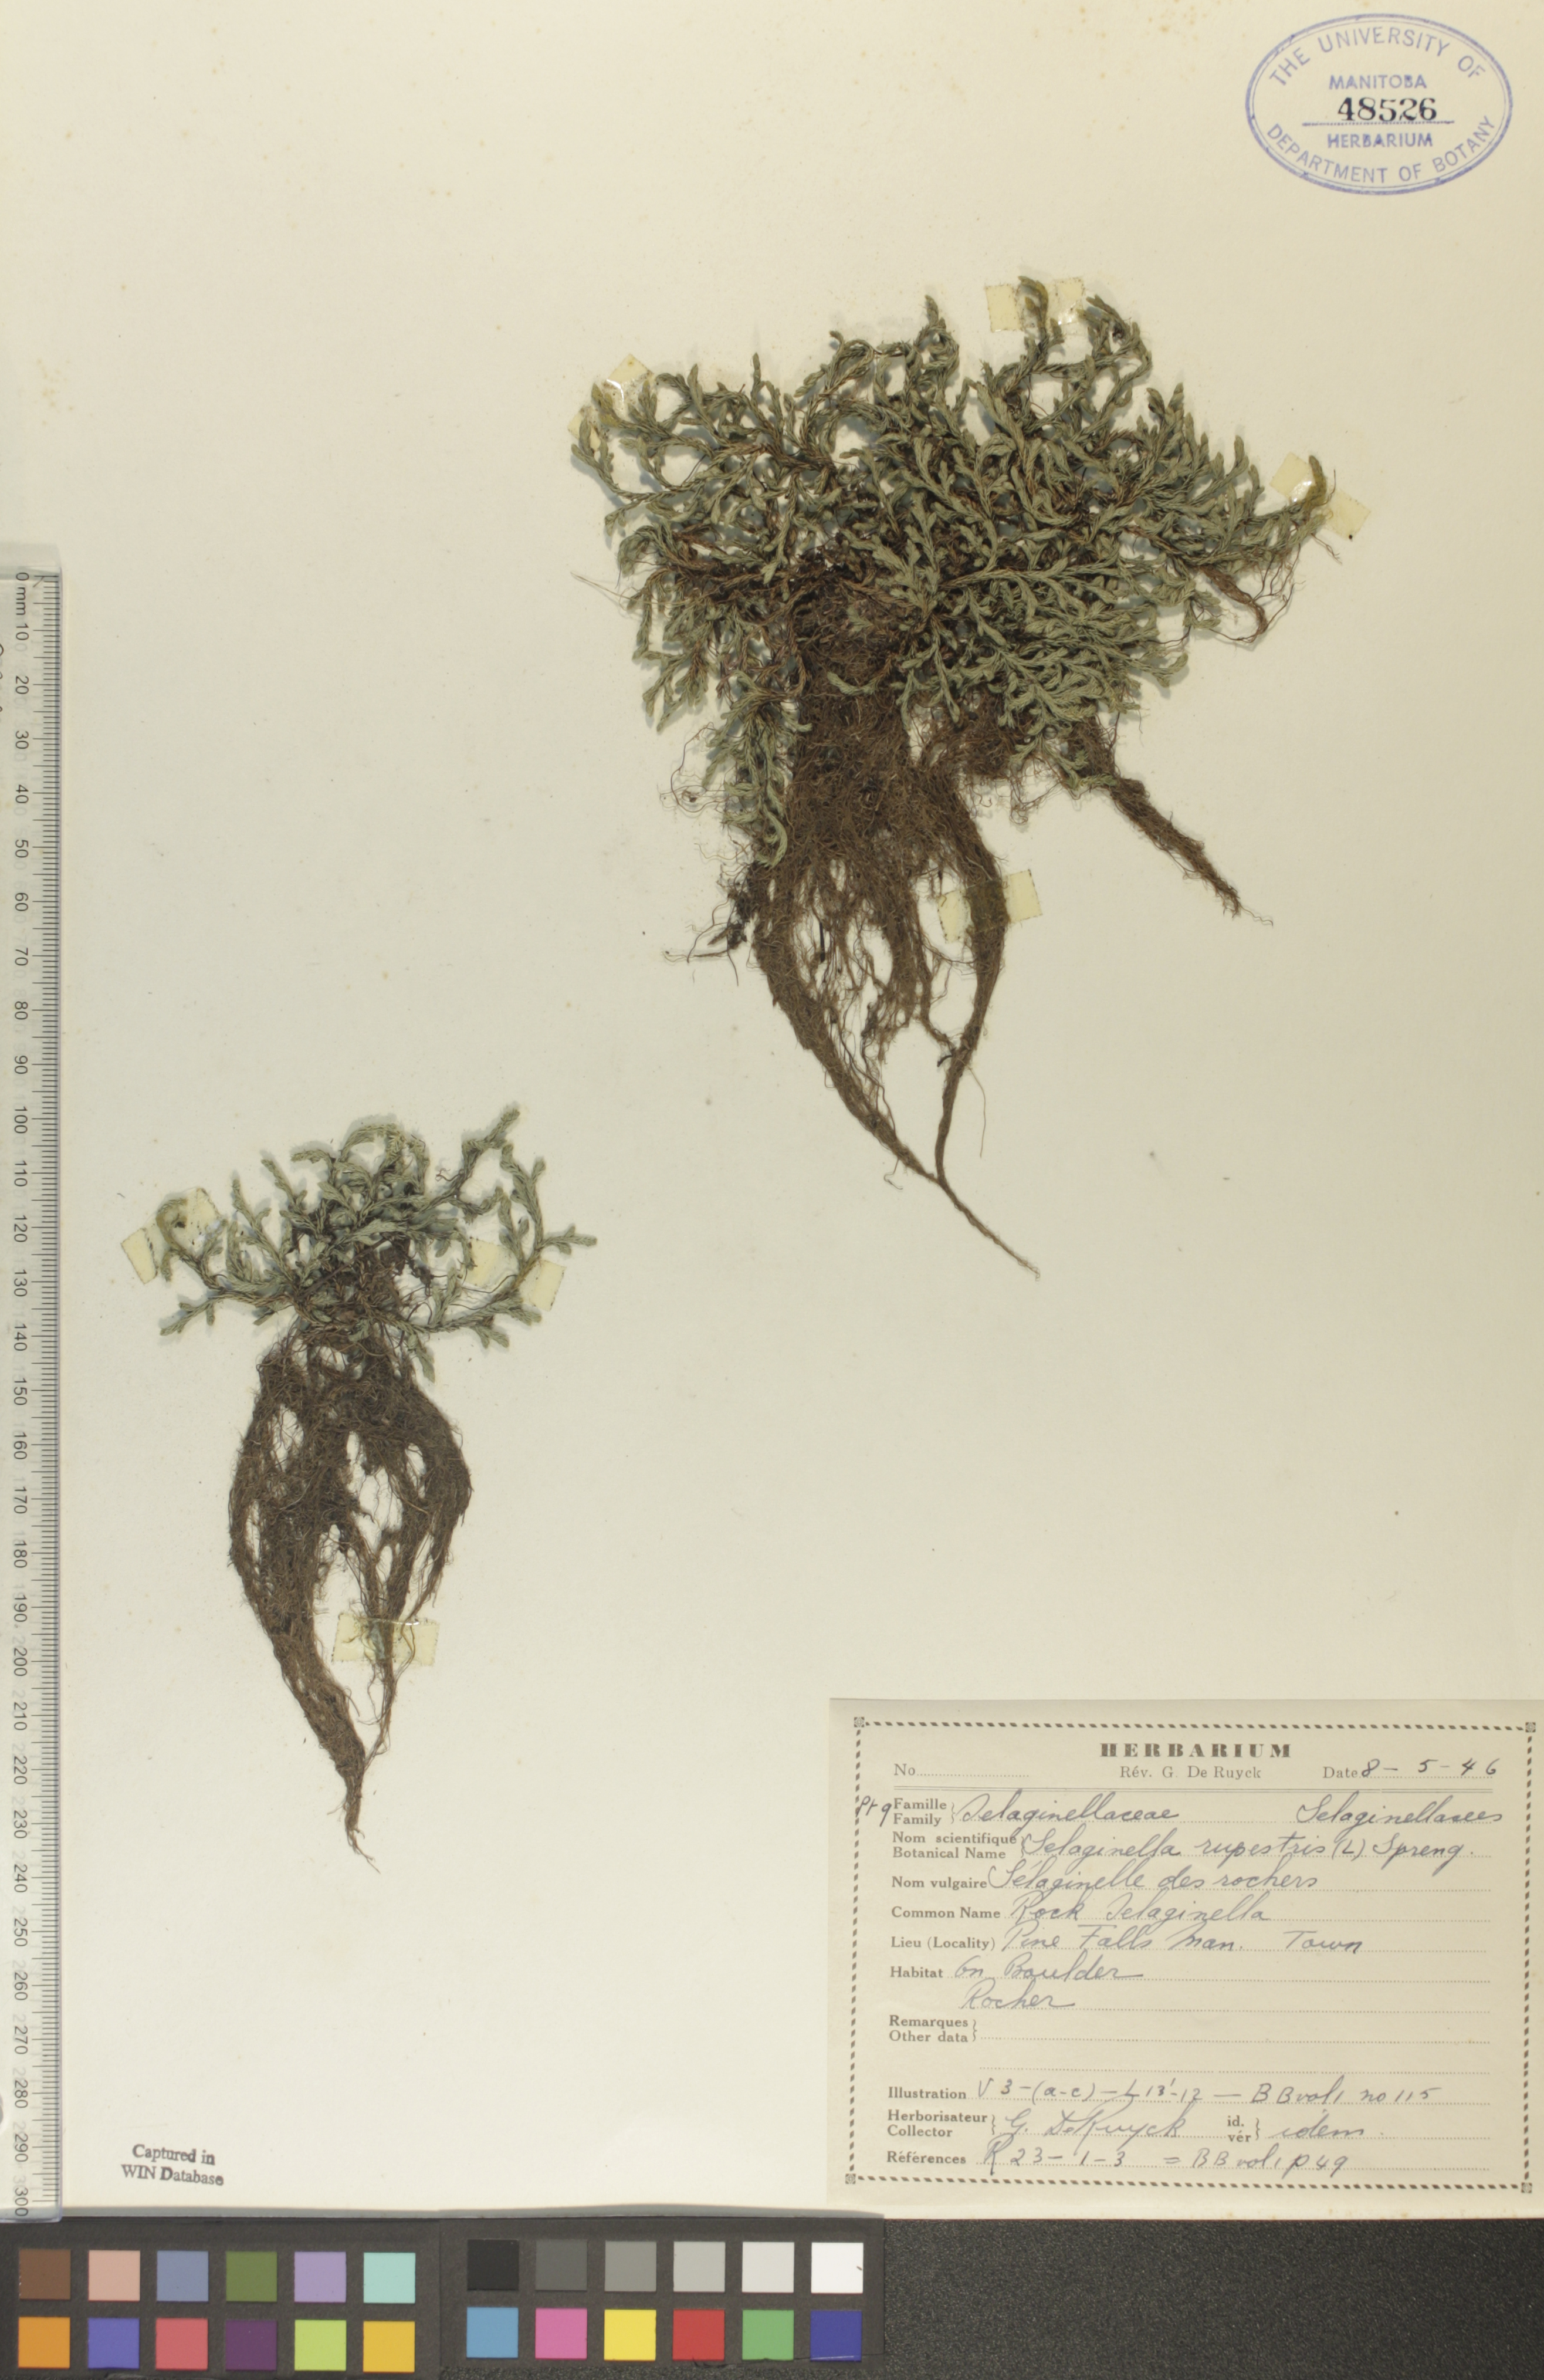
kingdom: Plantae
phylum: Tracheophyta
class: Lycopodiopsida
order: Selaginellales
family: Selaginellaceae
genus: Selaginella
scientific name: Selaginella rupestris
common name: Dwarf spikemoss
